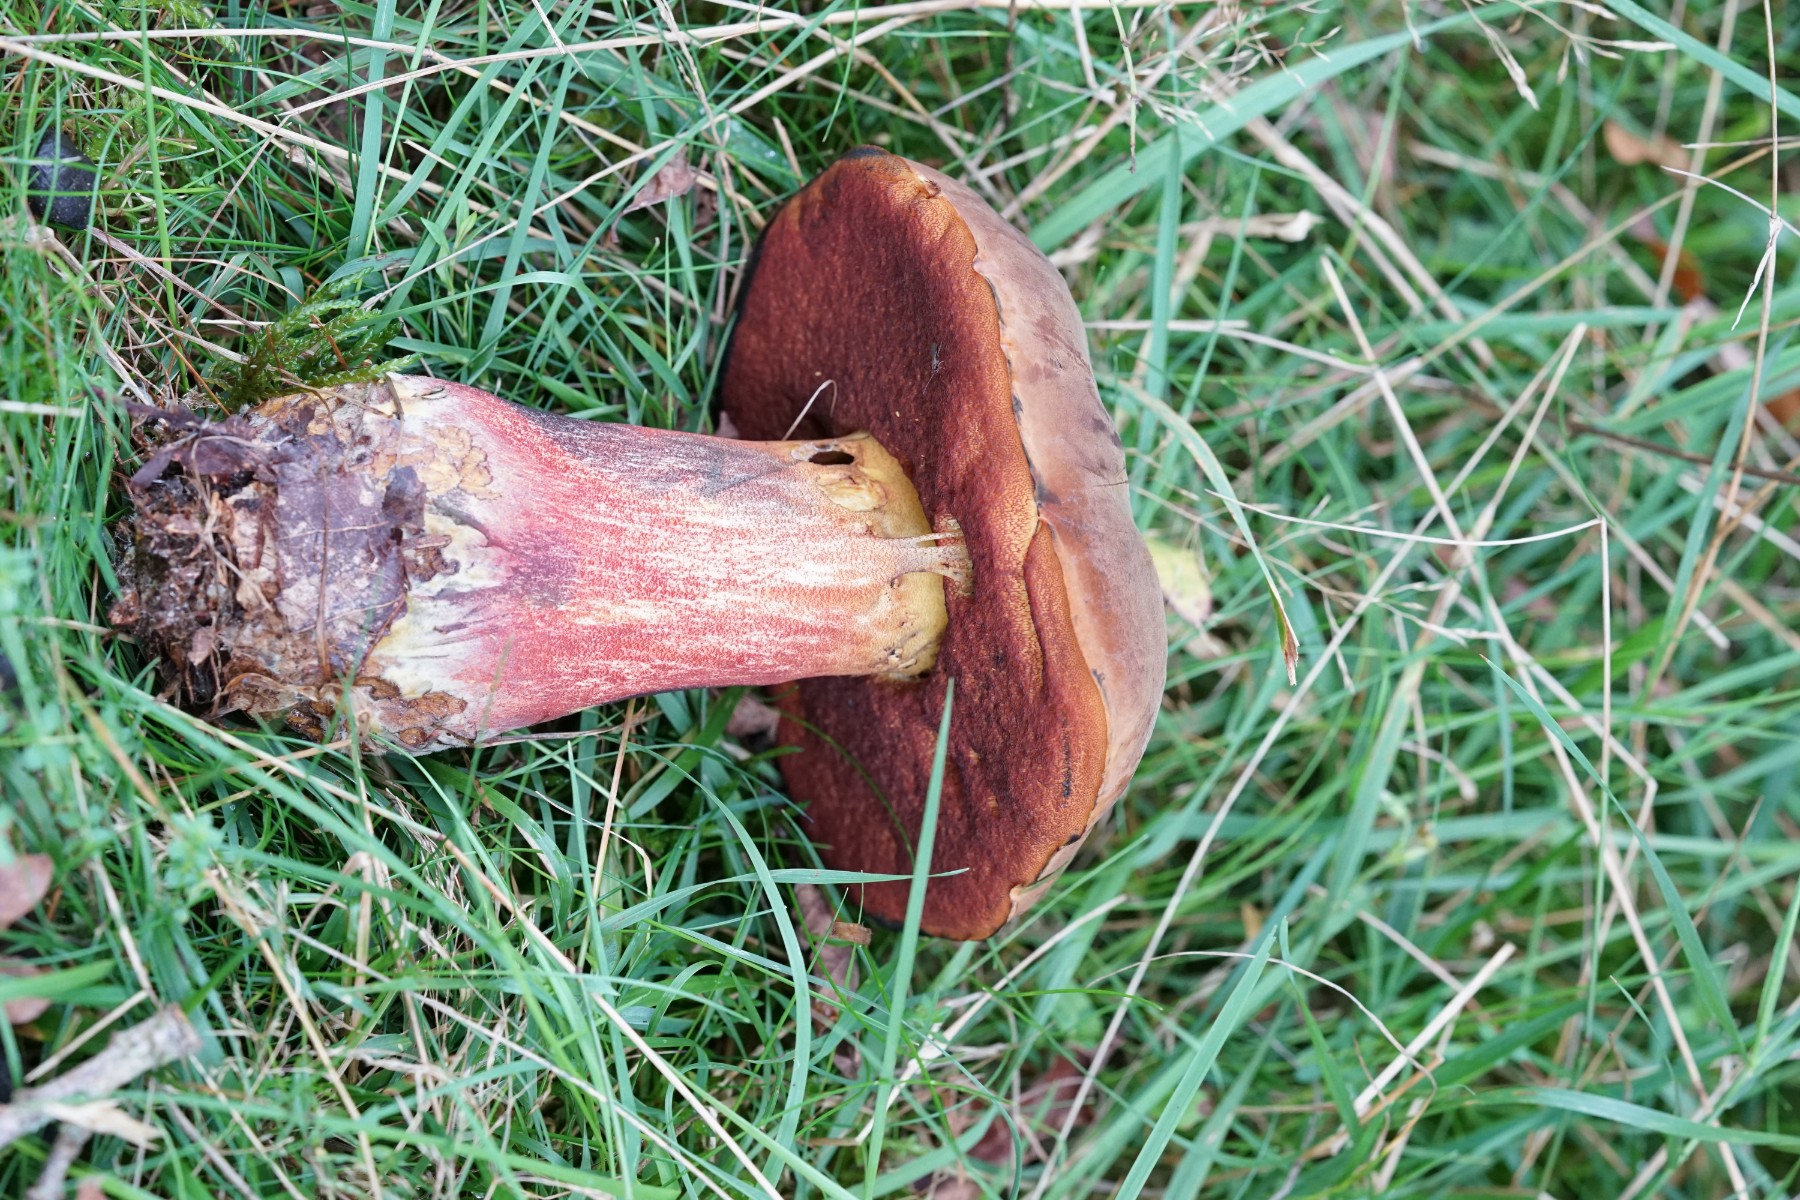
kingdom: Fungi
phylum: Basidiomycota
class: Agaricomycetes
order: Boletales
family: Boletaceae
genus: Neoboletus
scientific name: Neoboletus erythropus
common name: punktstokket indigorørhat
